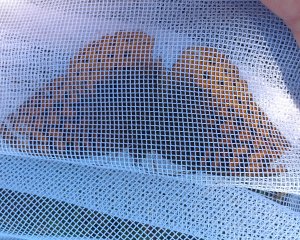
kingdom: Animalia
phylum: Arthropoda
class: Insecta
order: Lepidoptera
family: Nymphalidae
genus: Speyeria
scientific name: Speyeria cybele
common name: Great Spangled Fritillary
